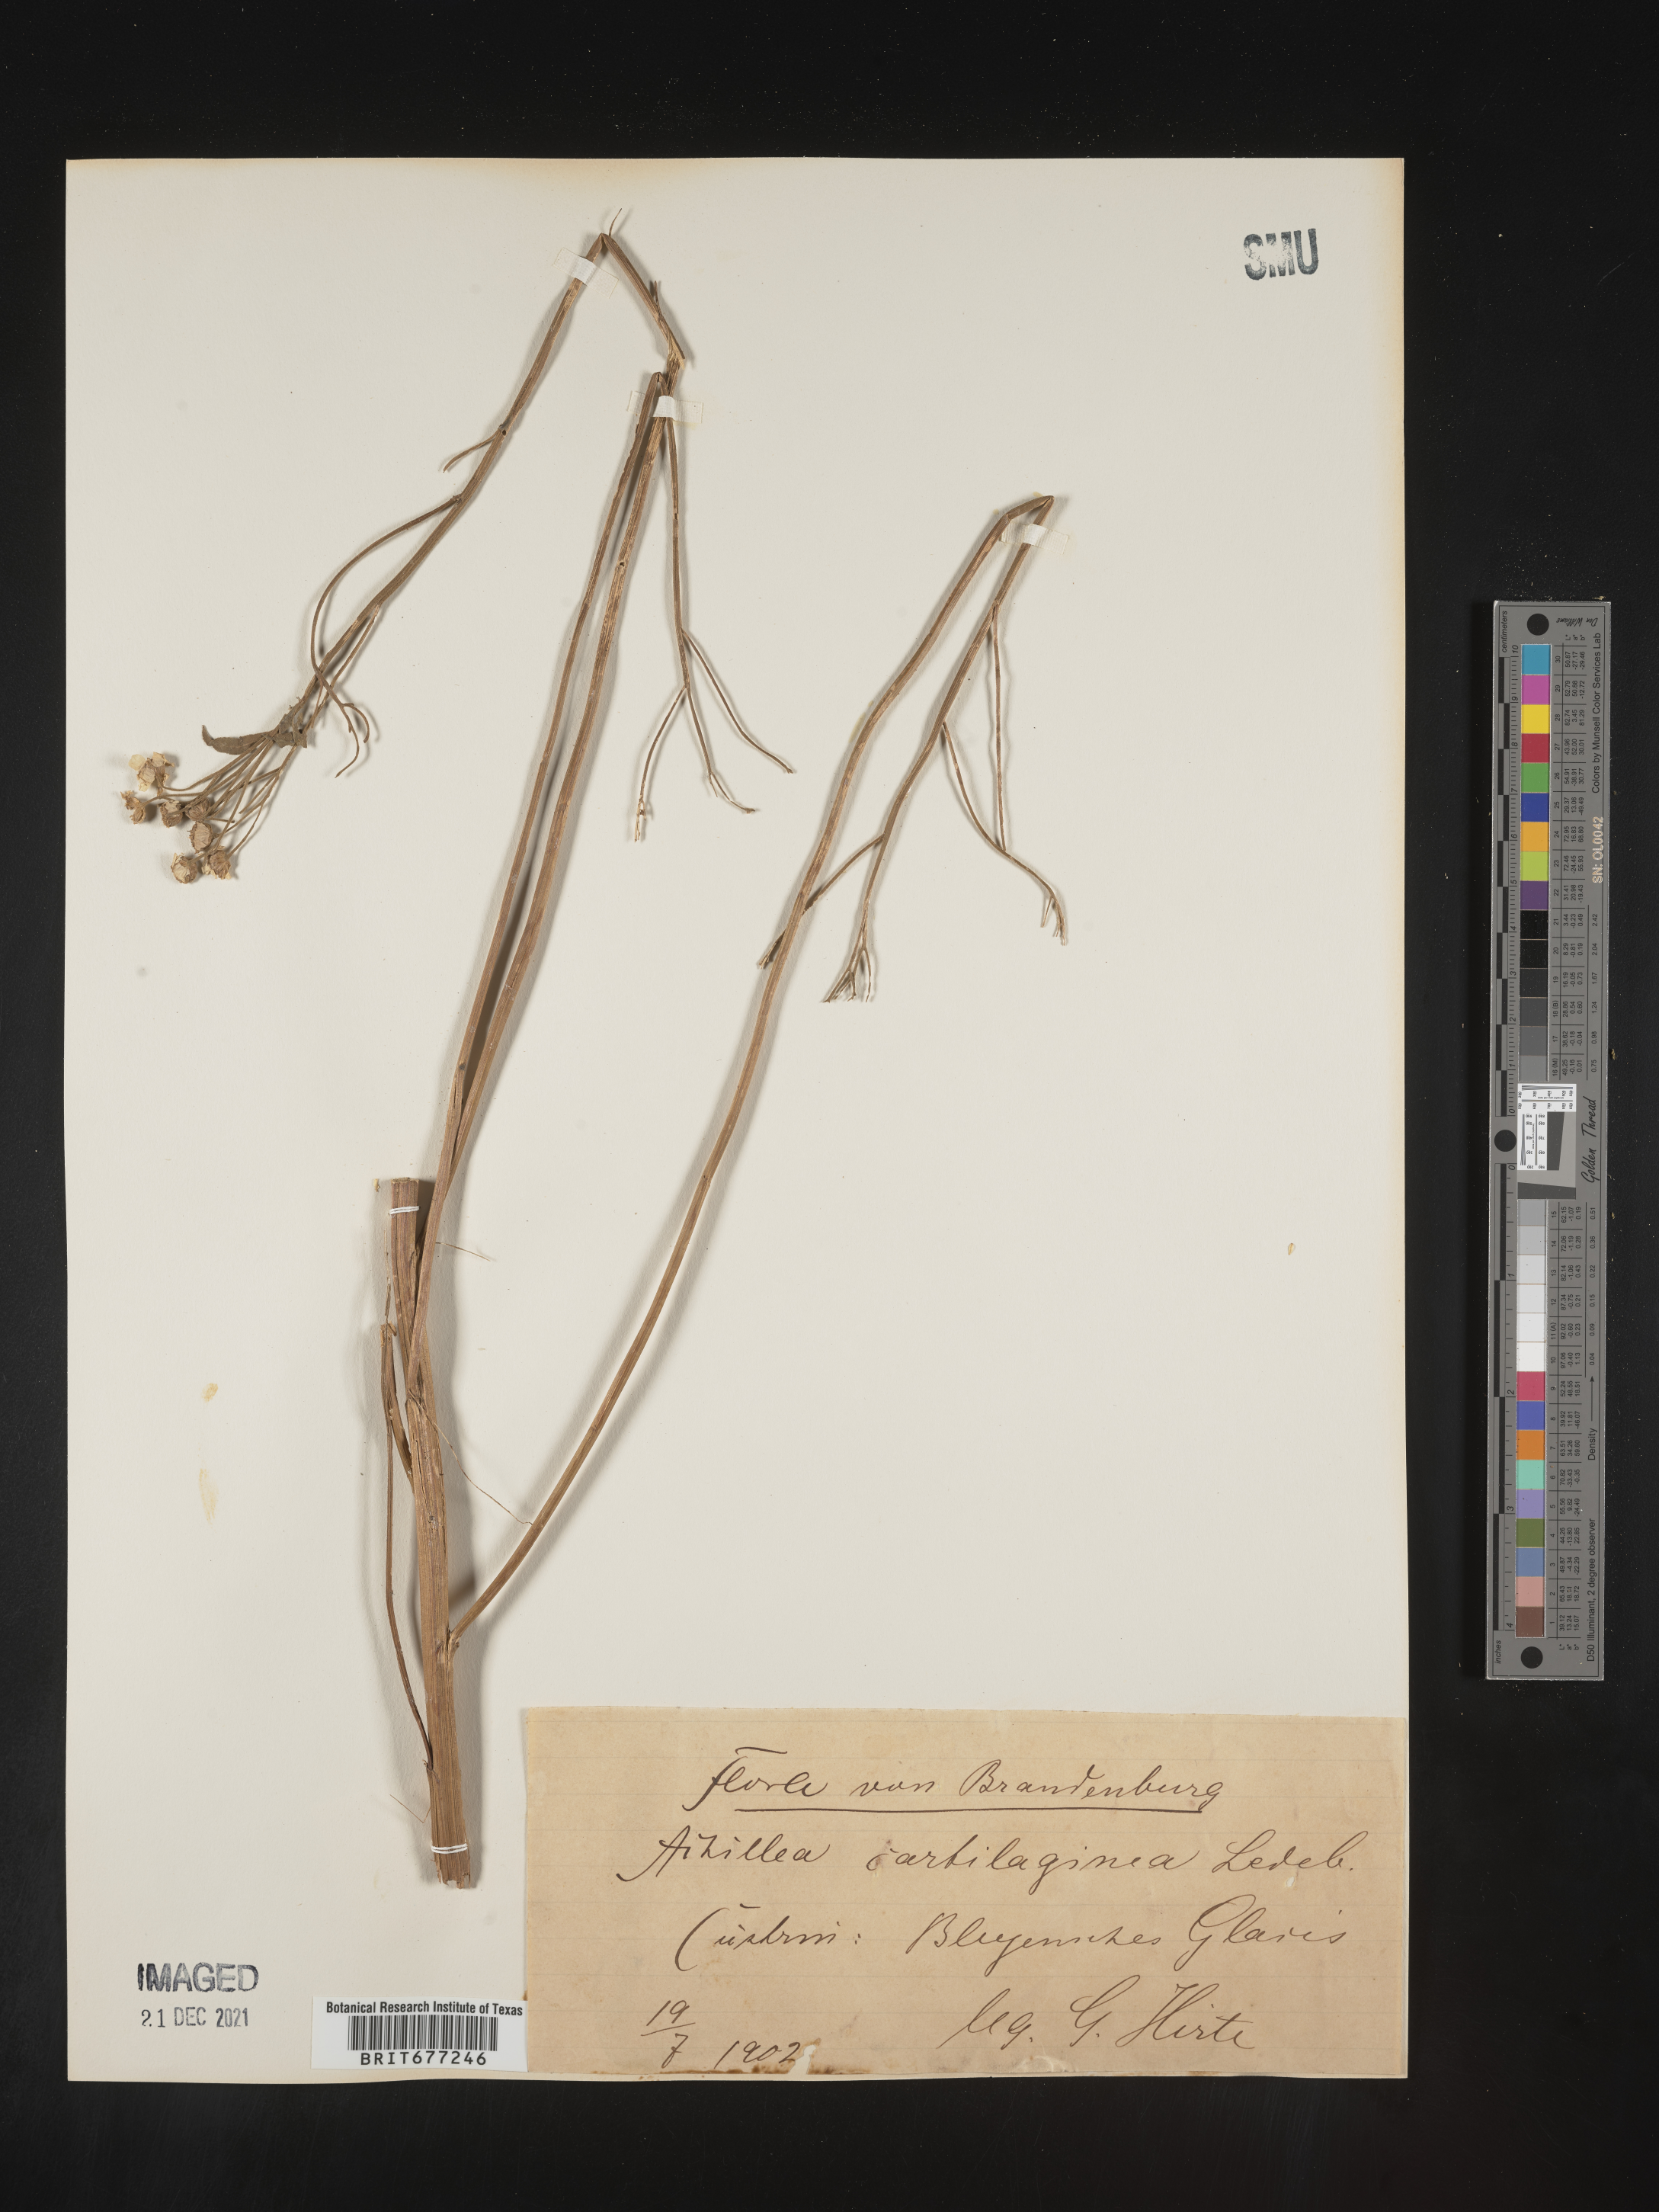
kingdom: Plantae
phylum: Tracheophyta
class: Magnoliopsida
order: Asterales
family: Asteraceae
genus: Achillea
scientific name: Achillea
